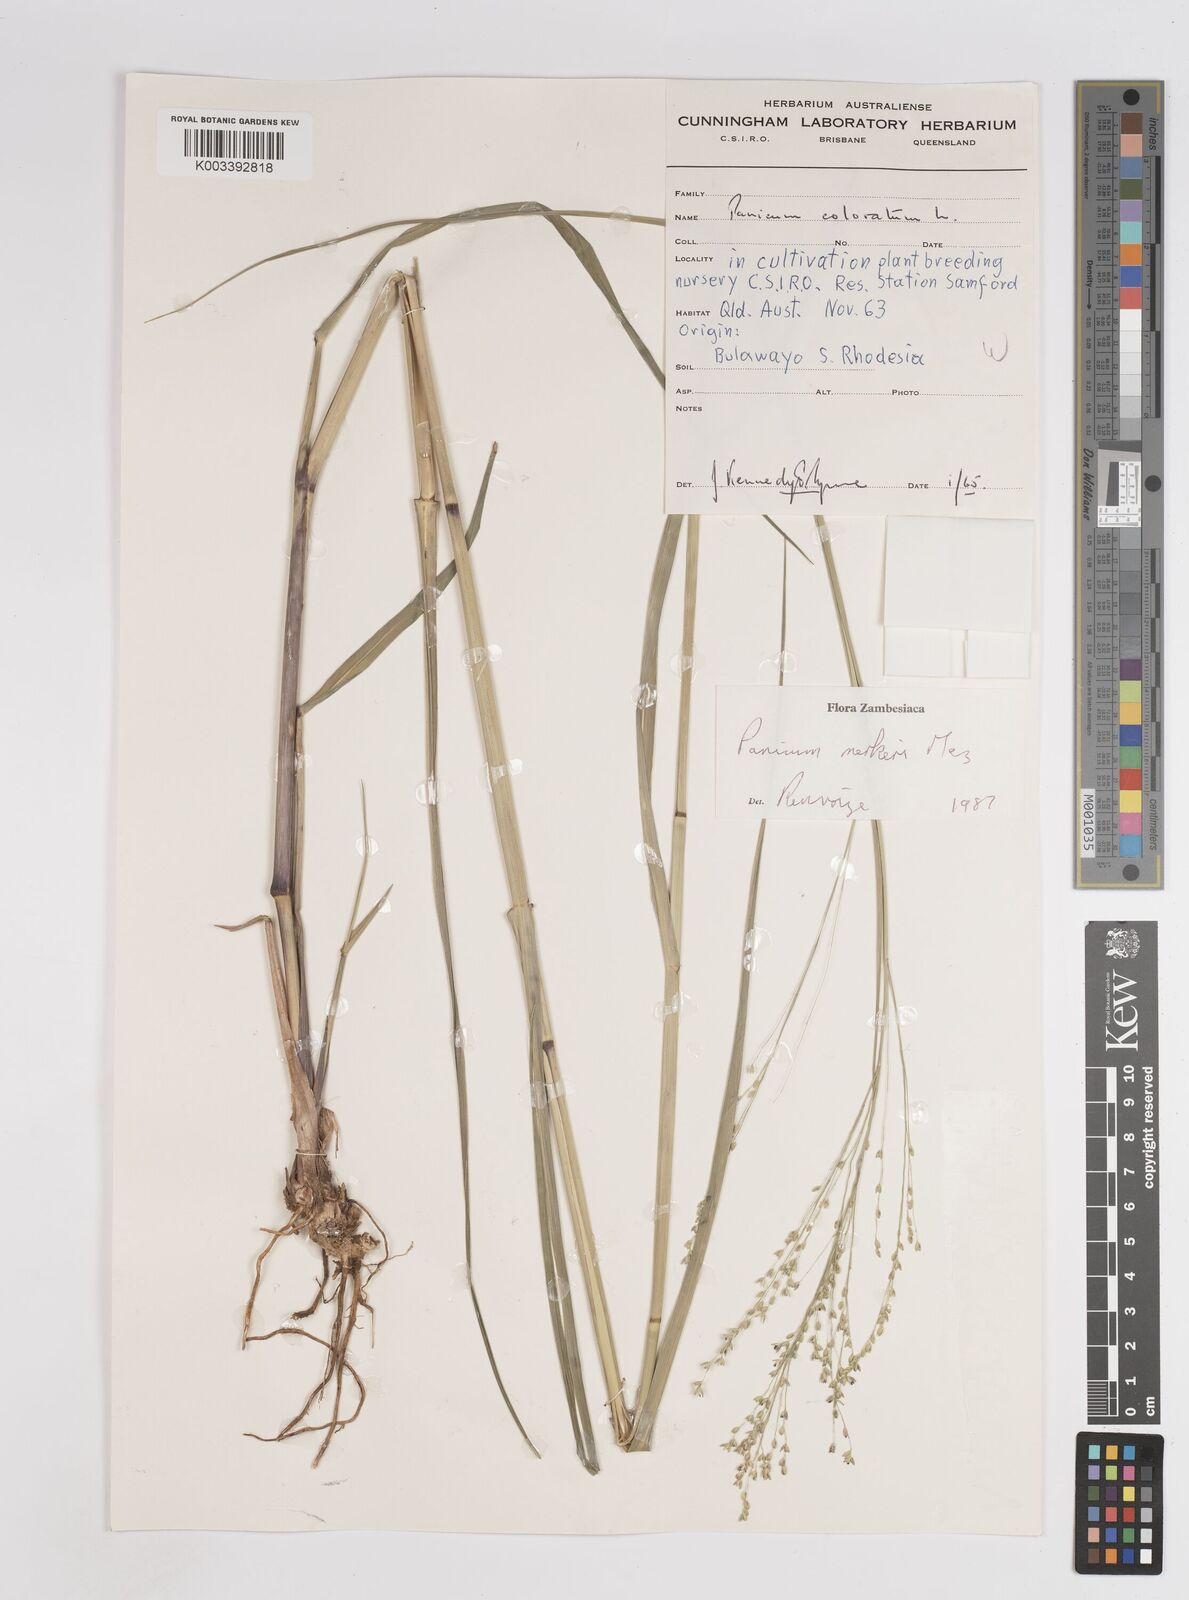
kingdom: Plantae
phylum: Tracheophyta
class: Liliopsida
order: Poales
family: Poaceae
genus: Panicum
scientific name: Panicum merkeri
